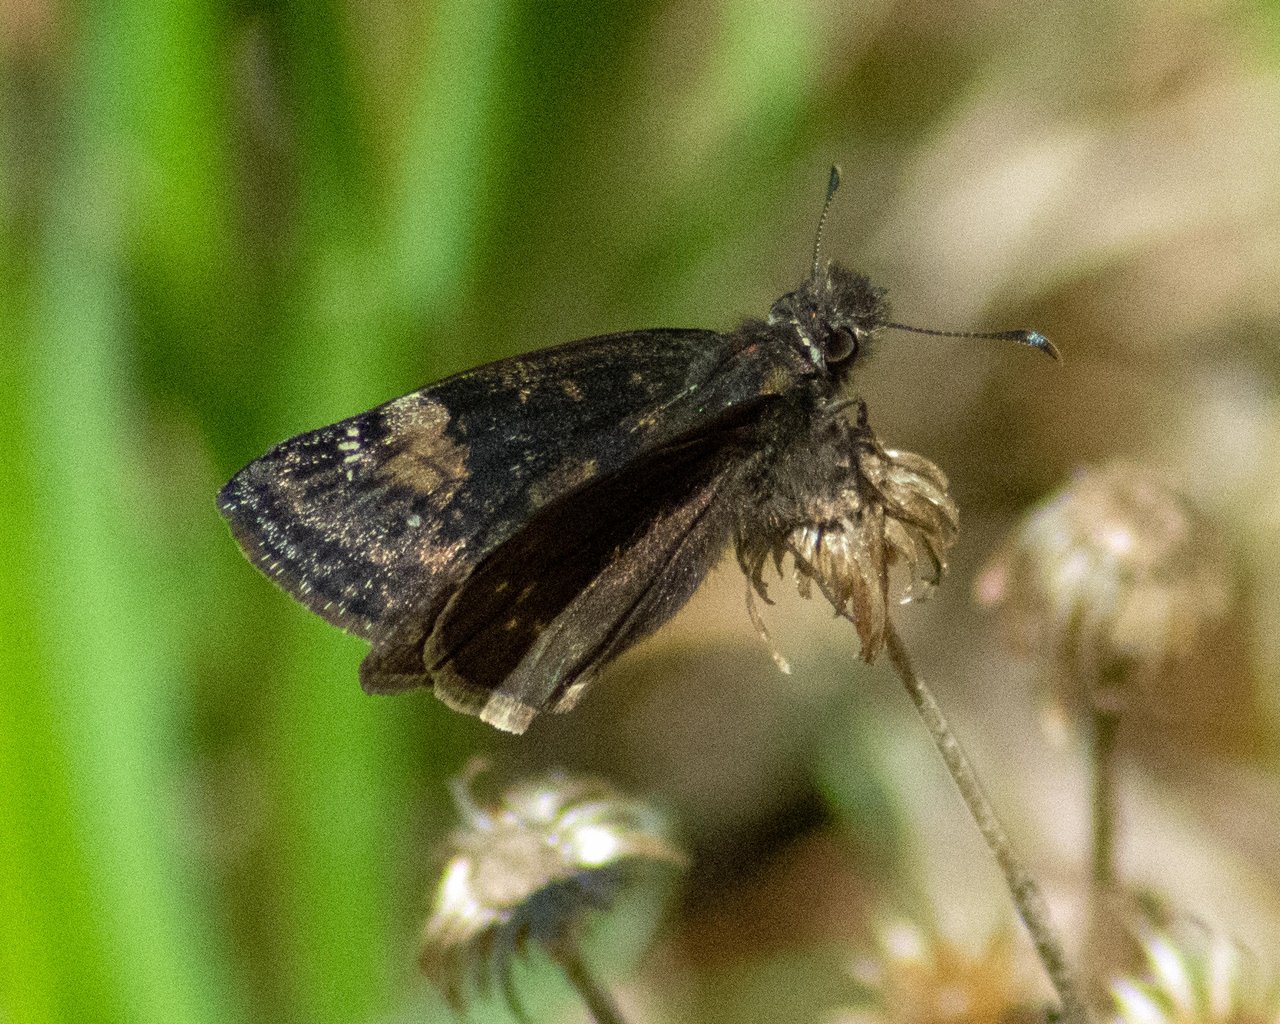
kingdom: Animalia
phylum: Arthropoda
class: Insecta
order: Lepidoptera
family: Hesperiidae
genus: Gesta
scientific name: Gesta
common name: Wild Indigo Duskywing
